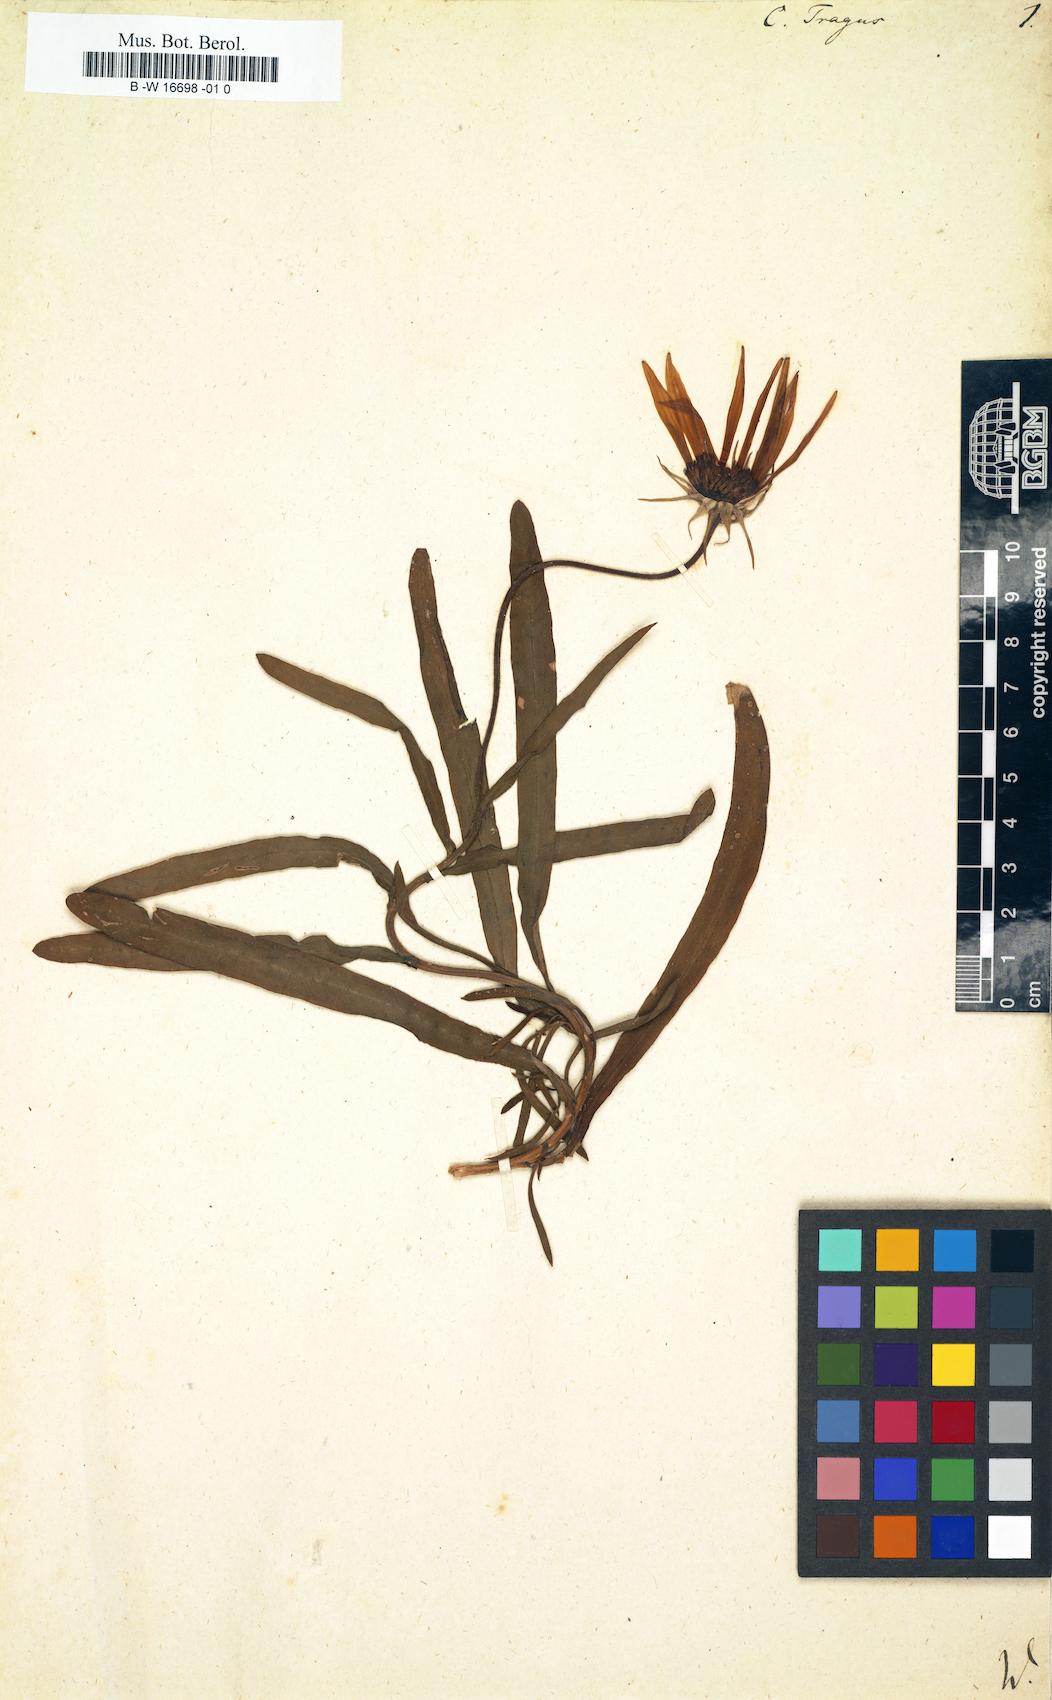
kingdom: Plantae
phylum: Tracheophyta
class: Magnoliopsida
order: Asterales
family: Asteraceae
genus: Calendula
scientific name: Calendula tragus
